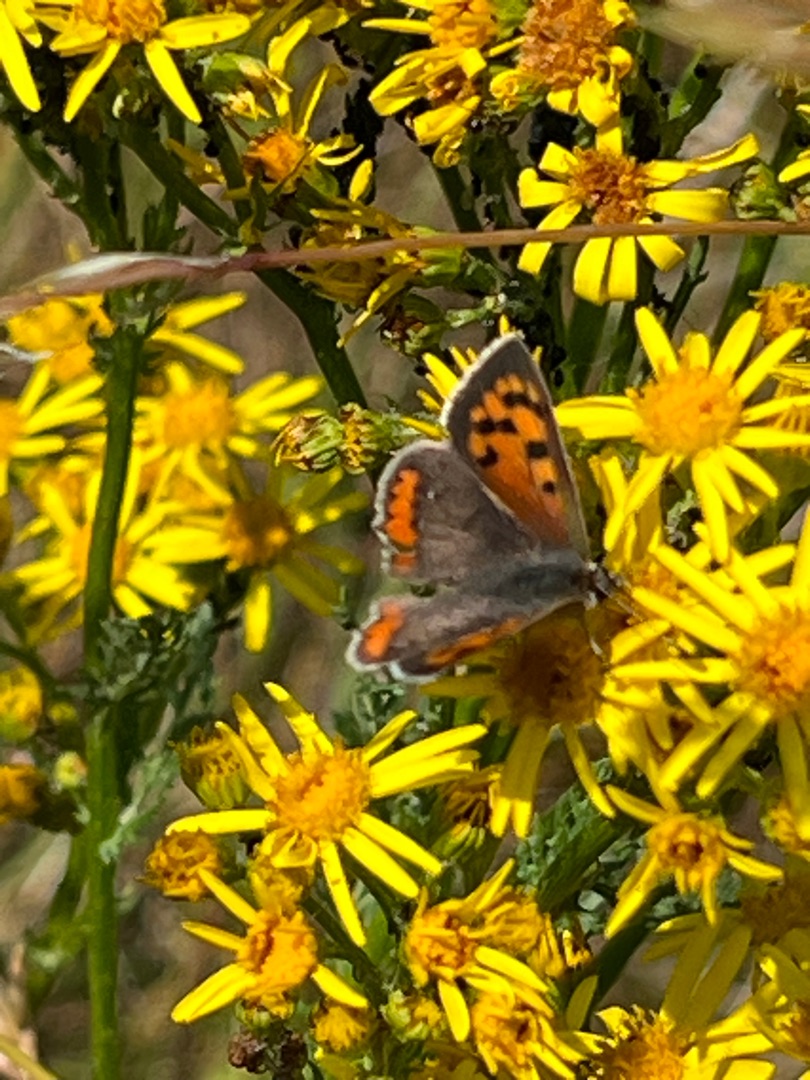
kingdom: Animalia
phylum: Arthropoda
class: Insecta
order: Lepidoptera
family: Lycaenidae
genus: Lycaena
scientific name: Lycaena phlaeas
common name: Lille ildfugl
